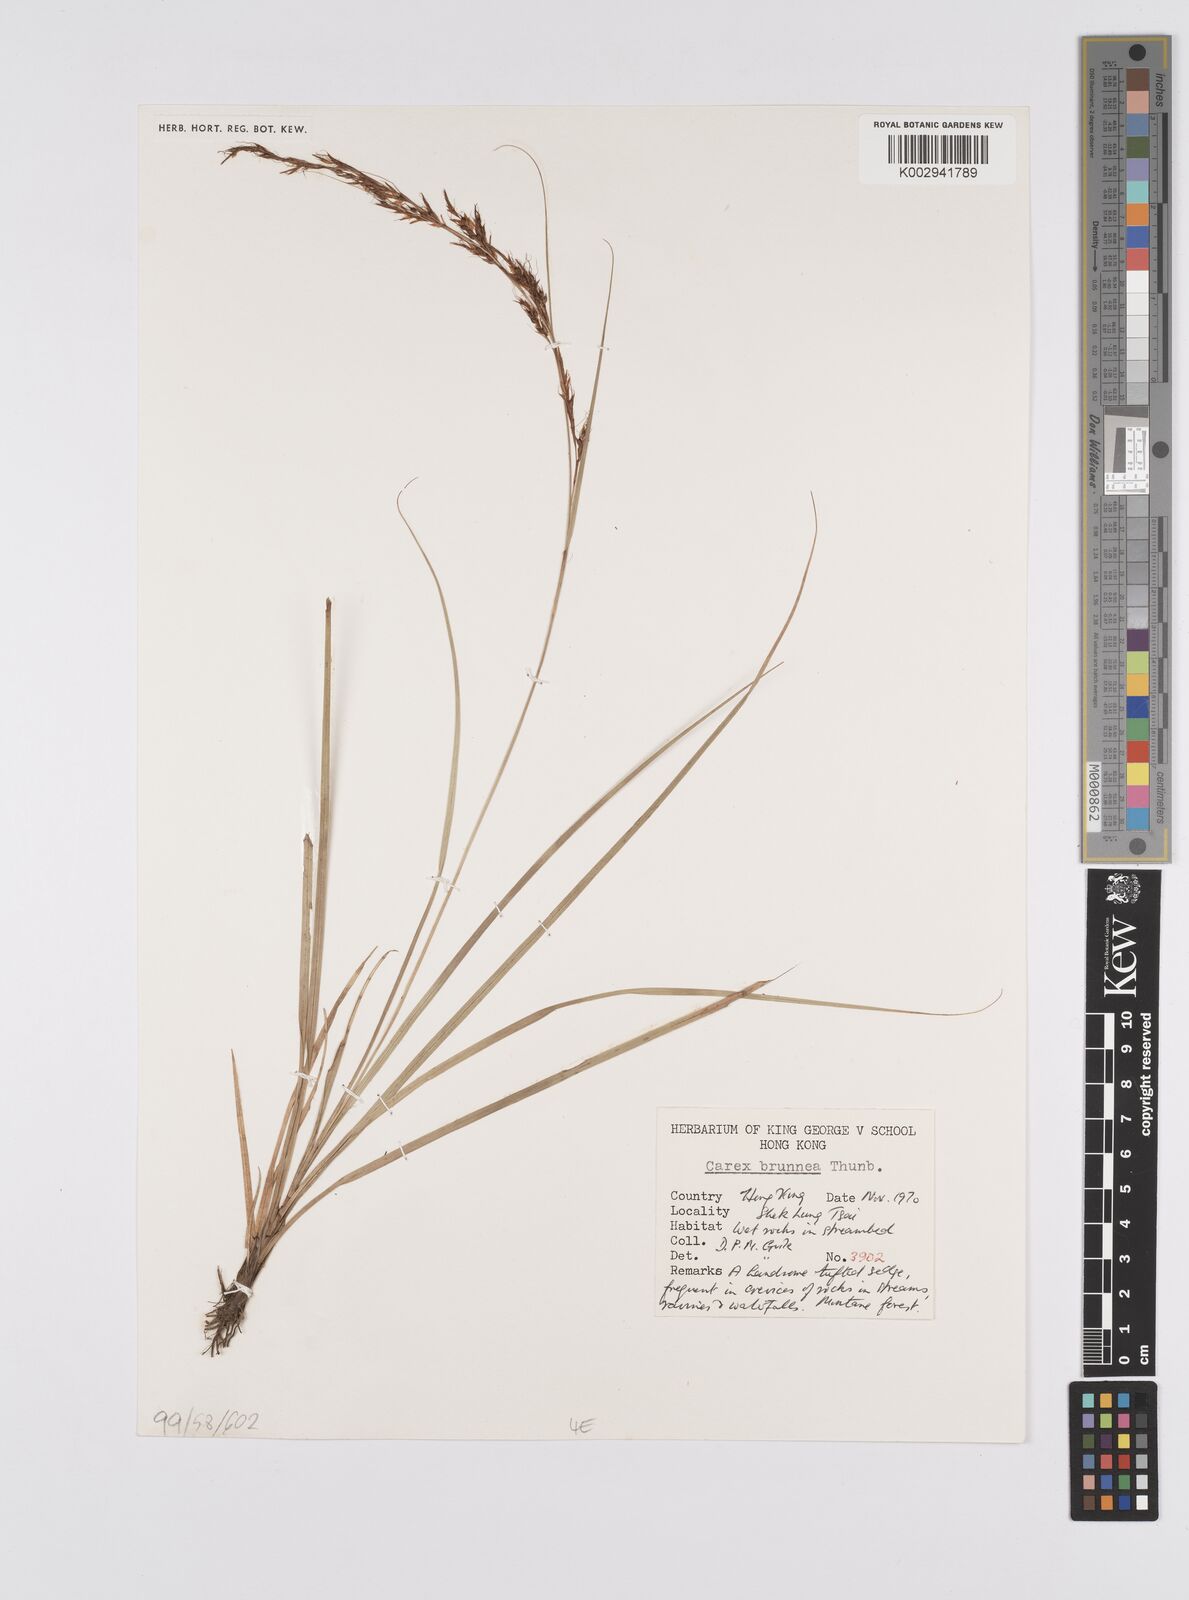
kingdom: Plantae
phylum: Tracheophyta
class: Liliopsida
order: Poales
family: Cyperaceae
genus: Carex
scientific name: Carex brunnea
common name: Greater brown sedge
